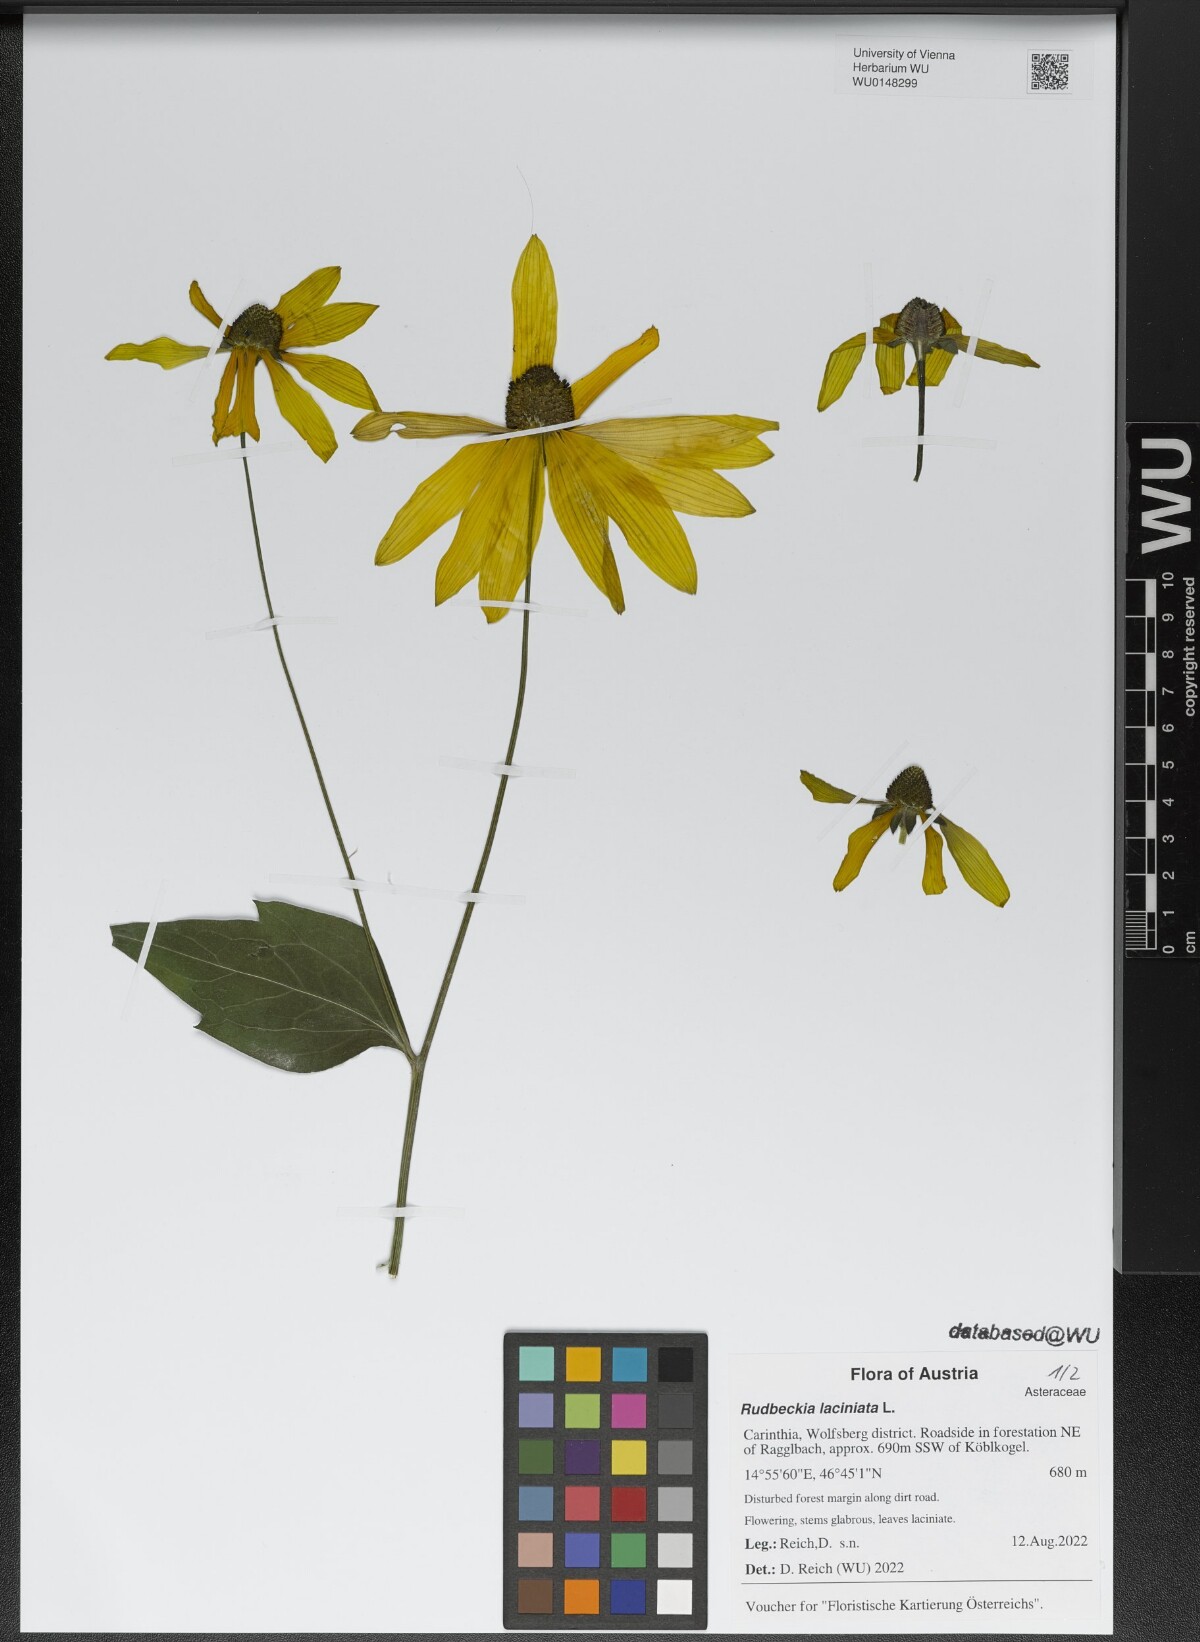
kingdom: Plantae
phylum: Tracheophyta
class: Magnoliopsida
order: Asterales
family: Asteraceae
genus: Rudbeckia
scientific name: Rudbeckia laciniata
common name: Coneflower
